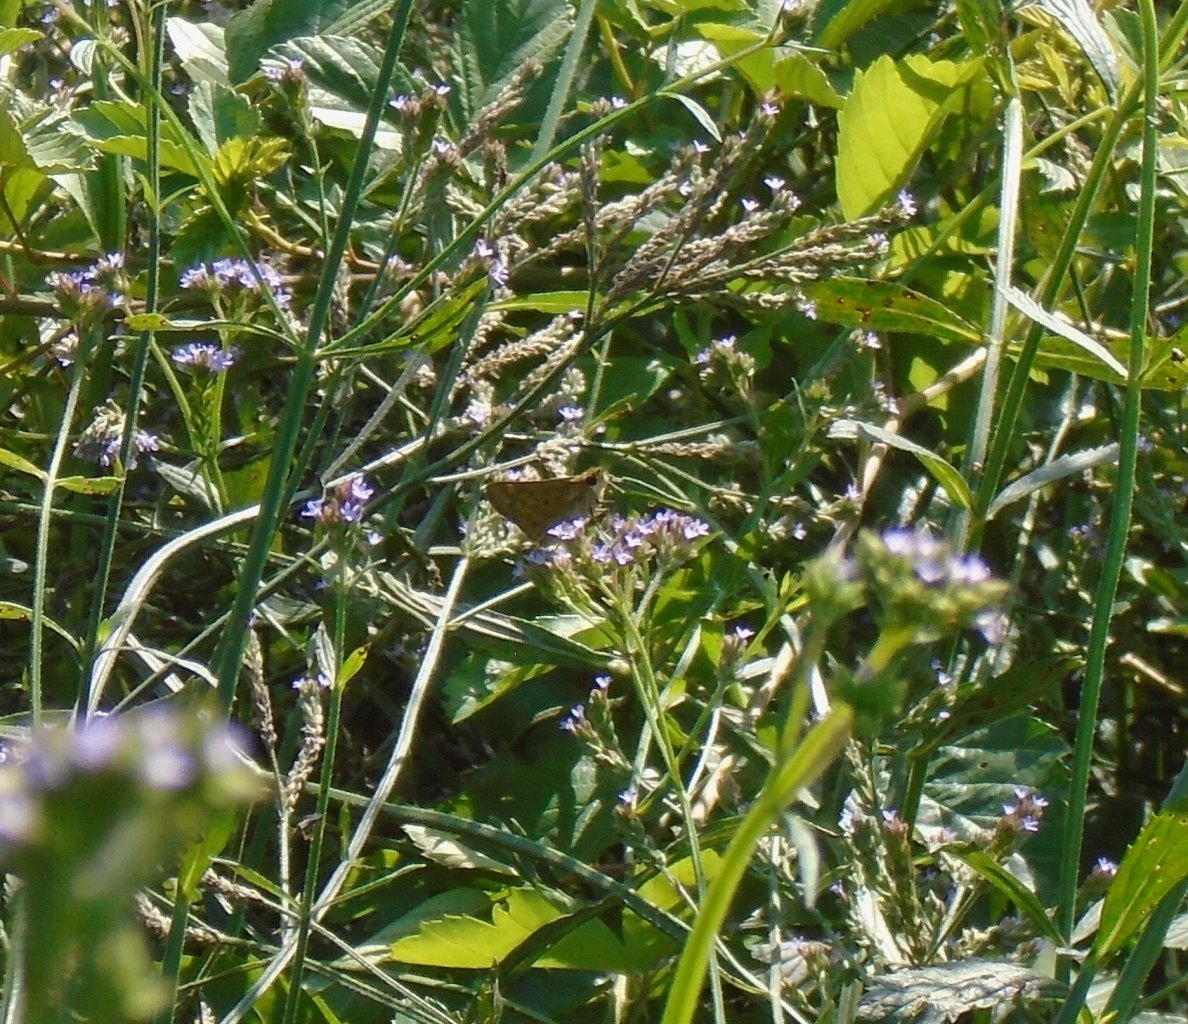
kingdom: Animalia
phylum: Arthropoda
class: Insecta
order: Lepidoptera
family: Hesperiidae
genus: Hylephila
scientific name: Hylephila phyleus
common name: Fiery Skipper
